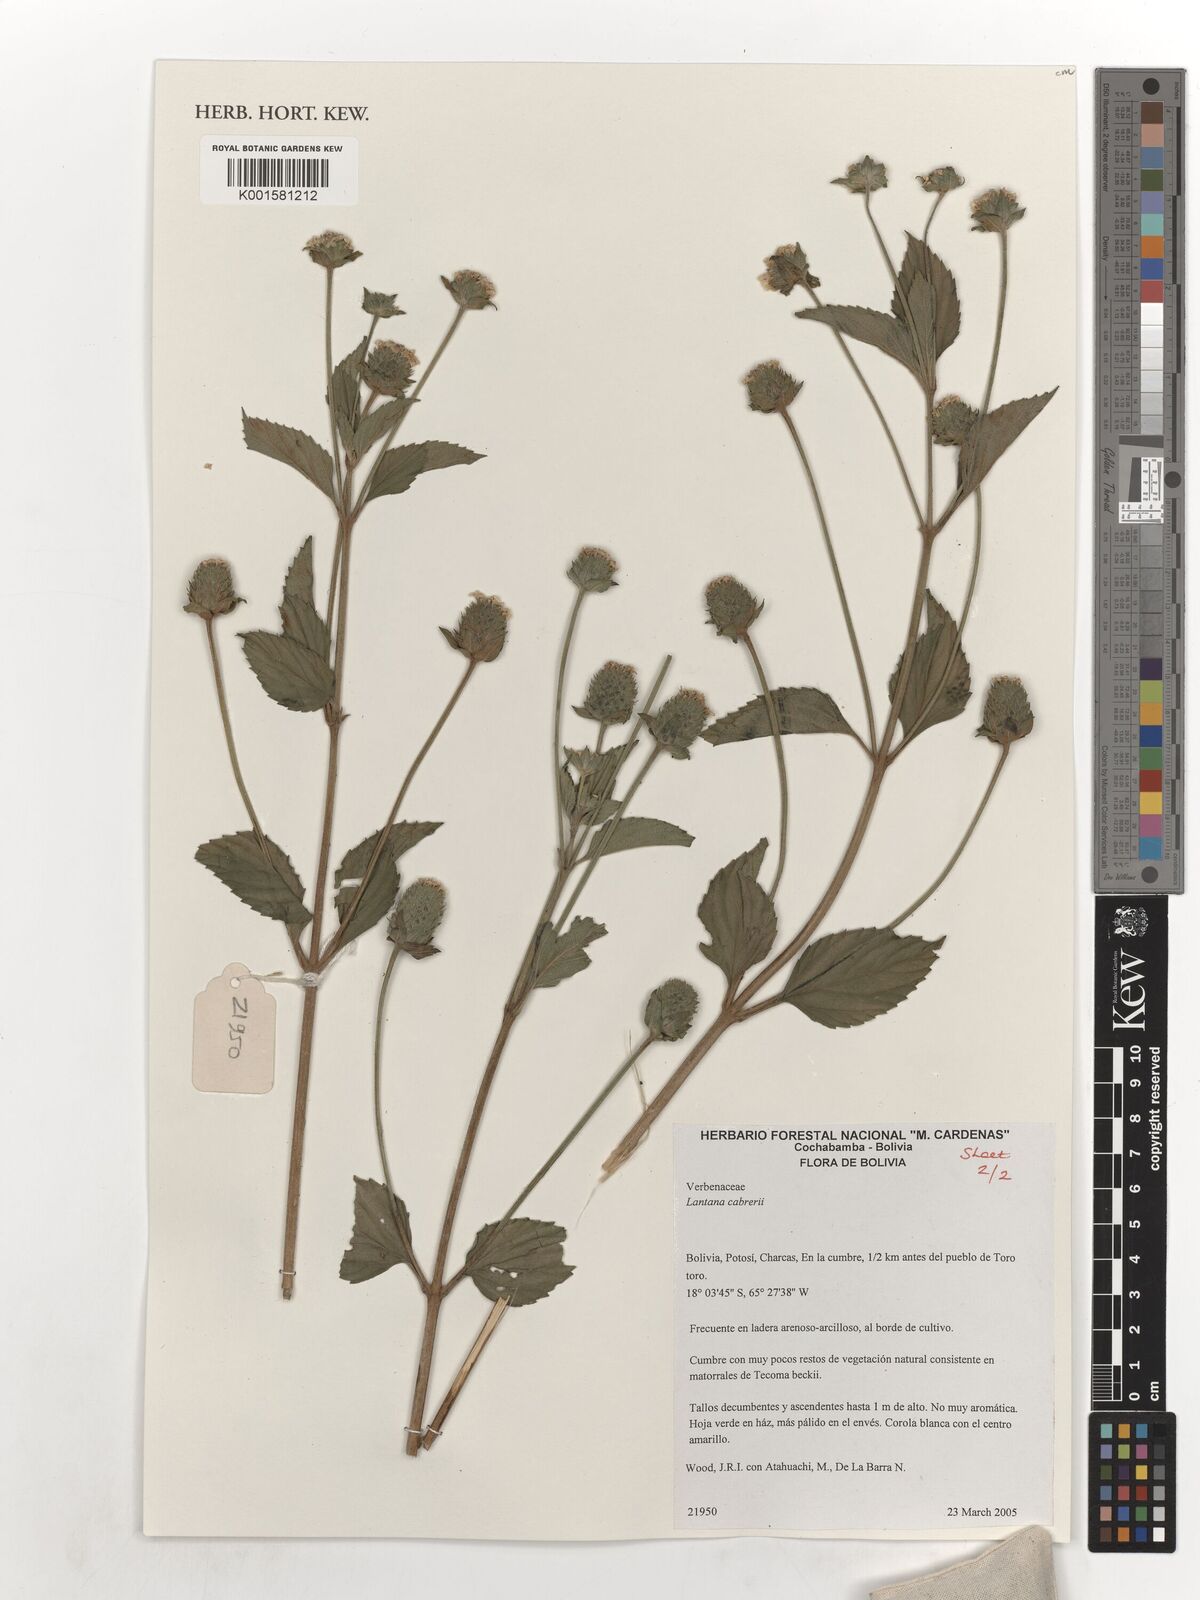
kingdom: Plantae
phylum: Tracheophyta
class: Magnoliopsida
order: Lamiales
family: Verbenaceae
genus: Lantana
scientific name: Lantana achyranthifolia
